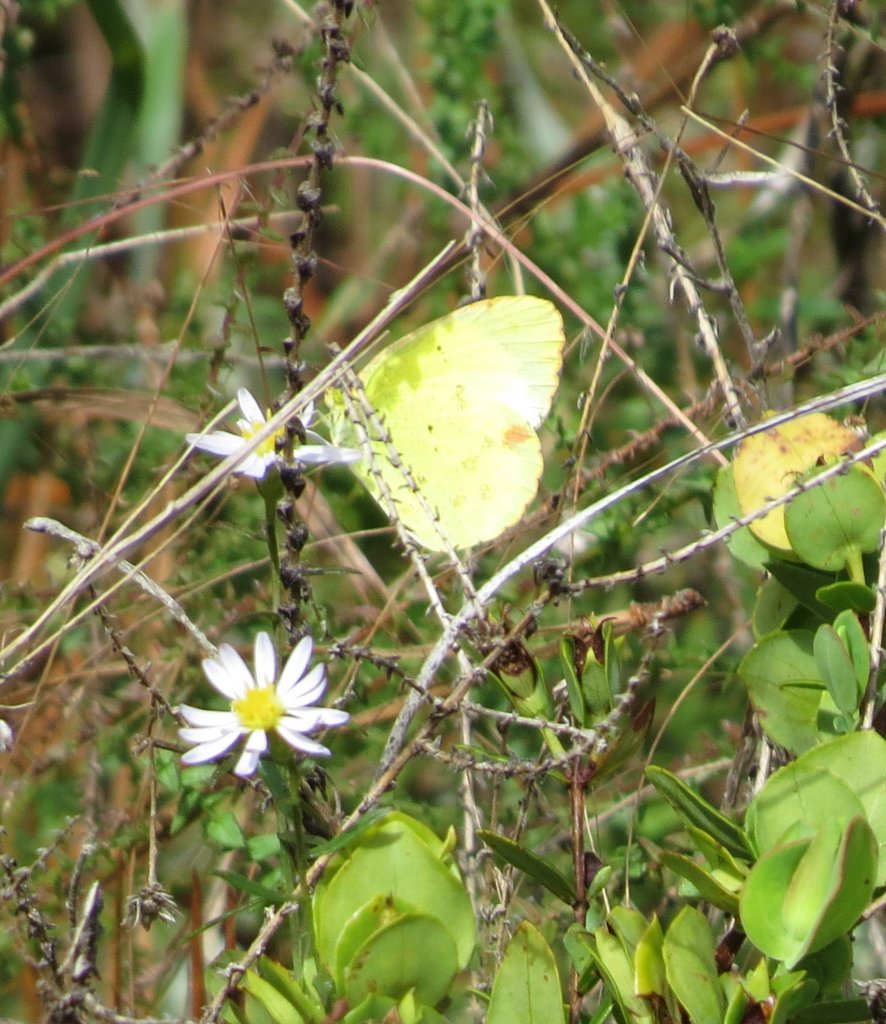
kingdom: Animalia
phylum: Arthropoda
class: Insecta
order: Lepidoptera
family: Pieridae
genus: Pyrisitia
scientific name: Pyrisitia lisa
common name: Little Yellow
